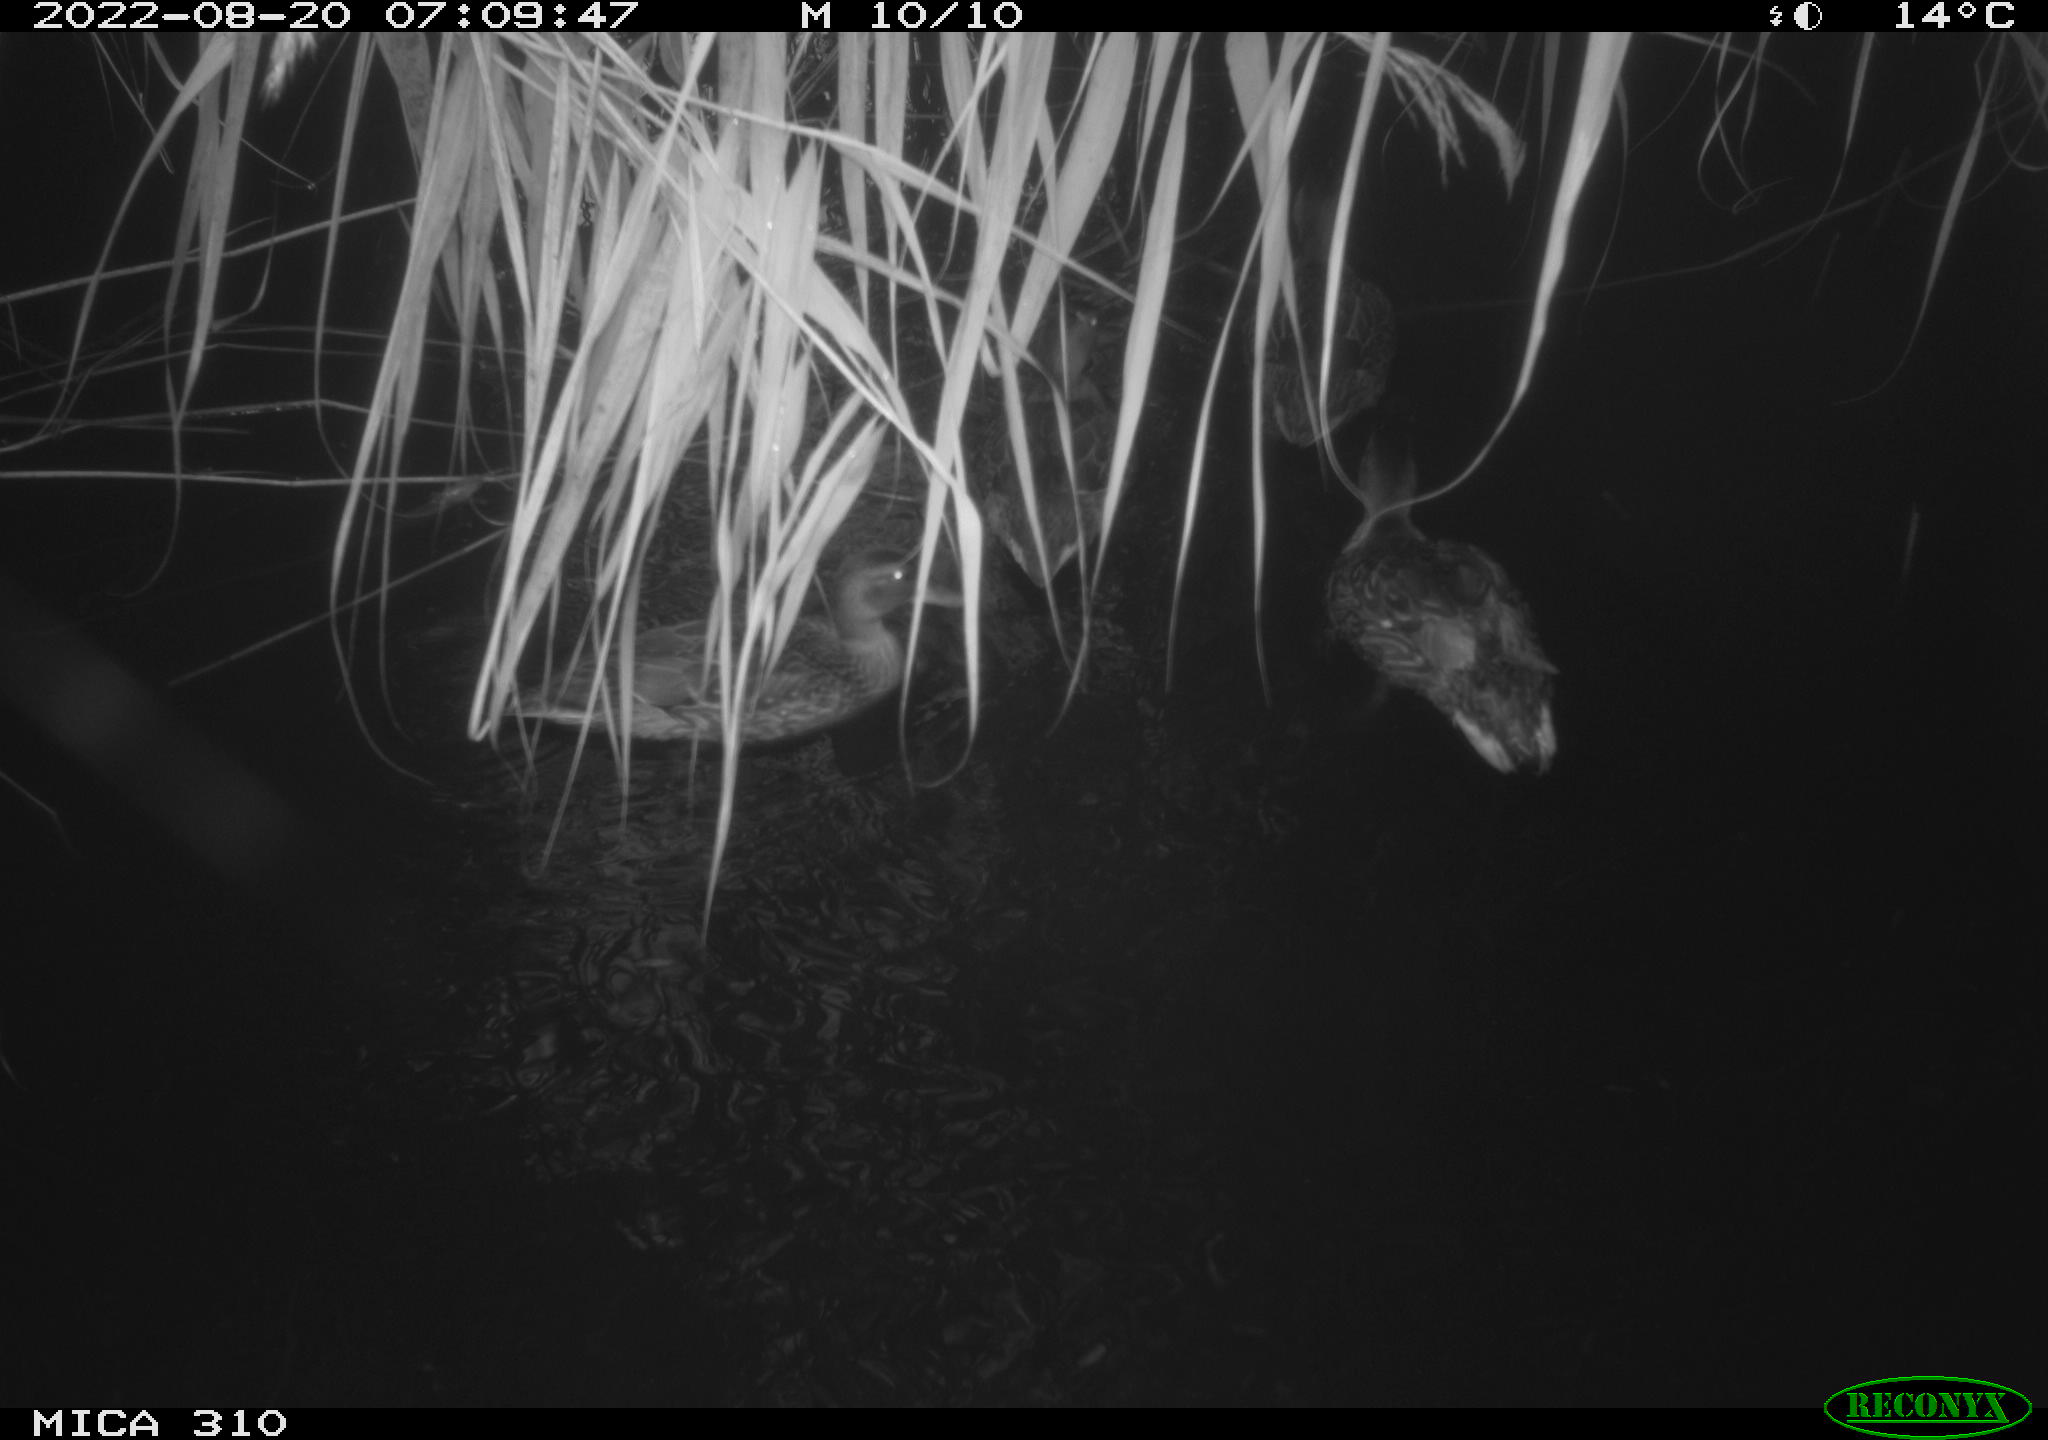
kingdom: Animalia
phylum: Chordata
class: Aves
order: Gruiformes
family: Rallidae
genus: Fulica
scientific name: Fulica atra
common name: Eurasian coot
